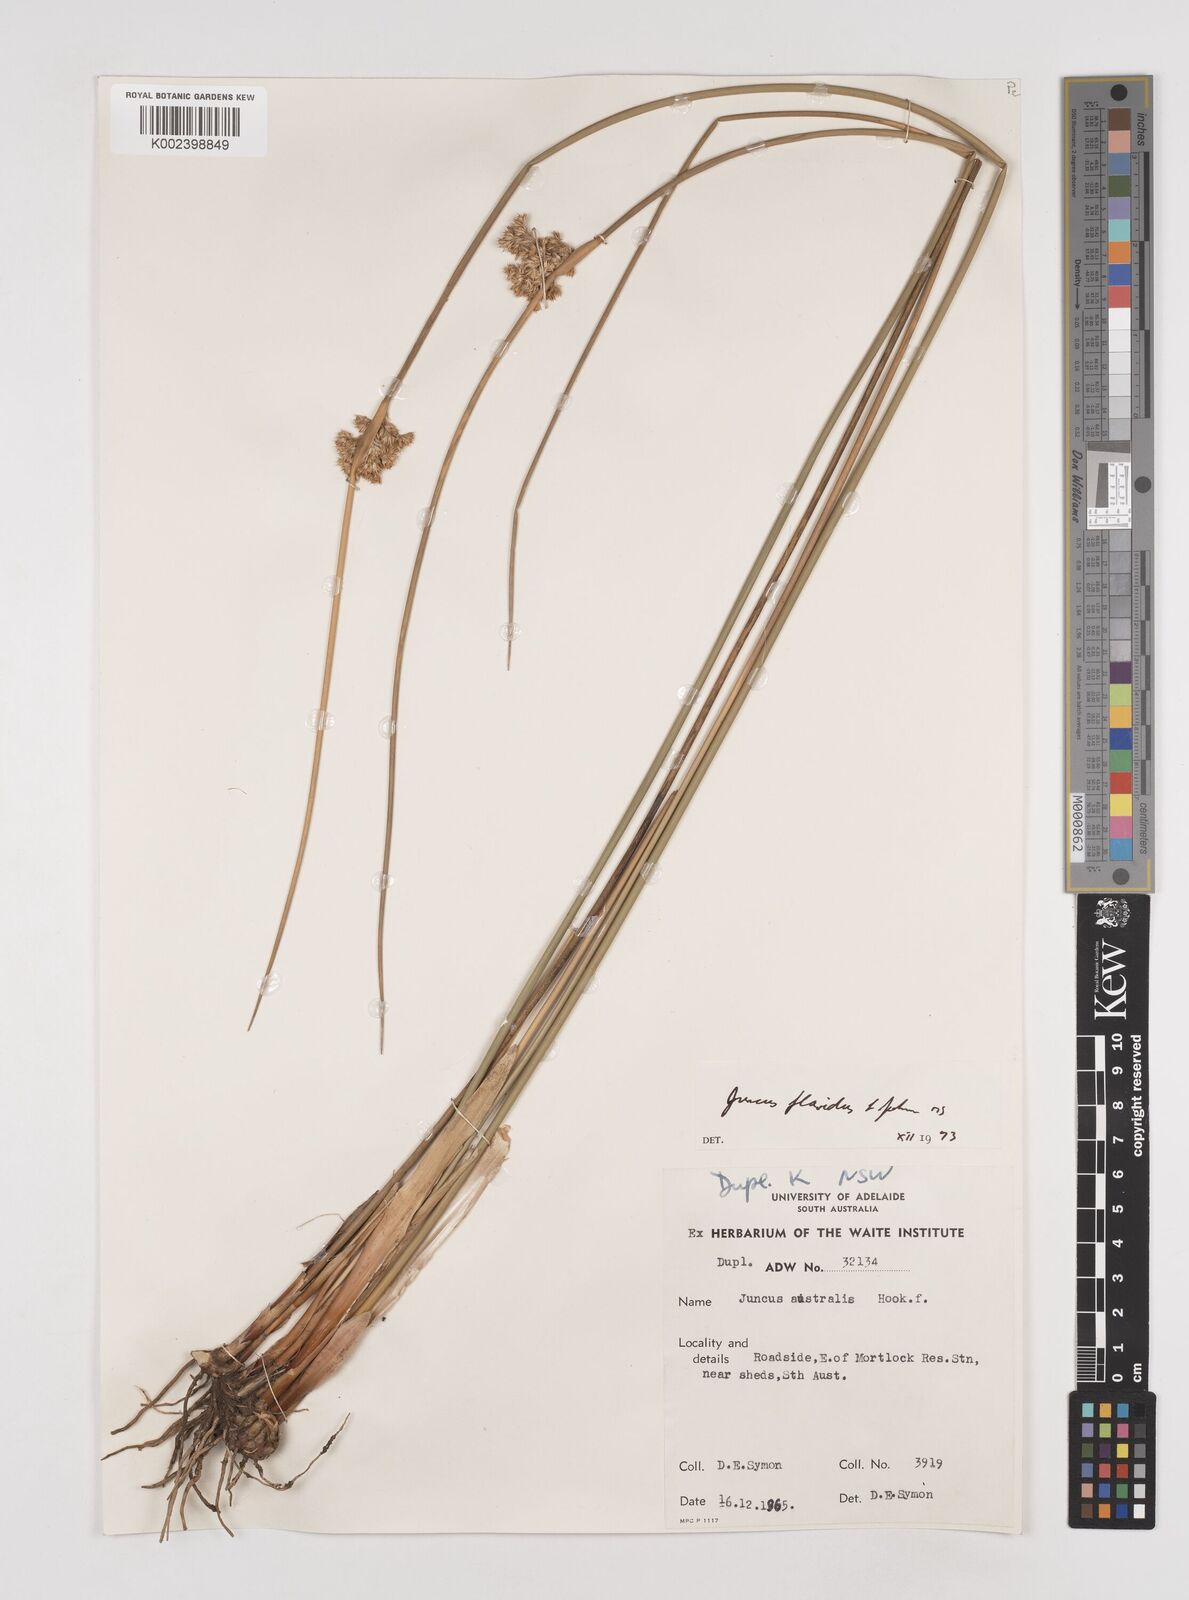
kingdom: Plantae
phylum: Tracheophyta
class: Liliopsida
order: Poales
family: Juncaceae
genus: Juncus
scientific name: Juncus flavidus
